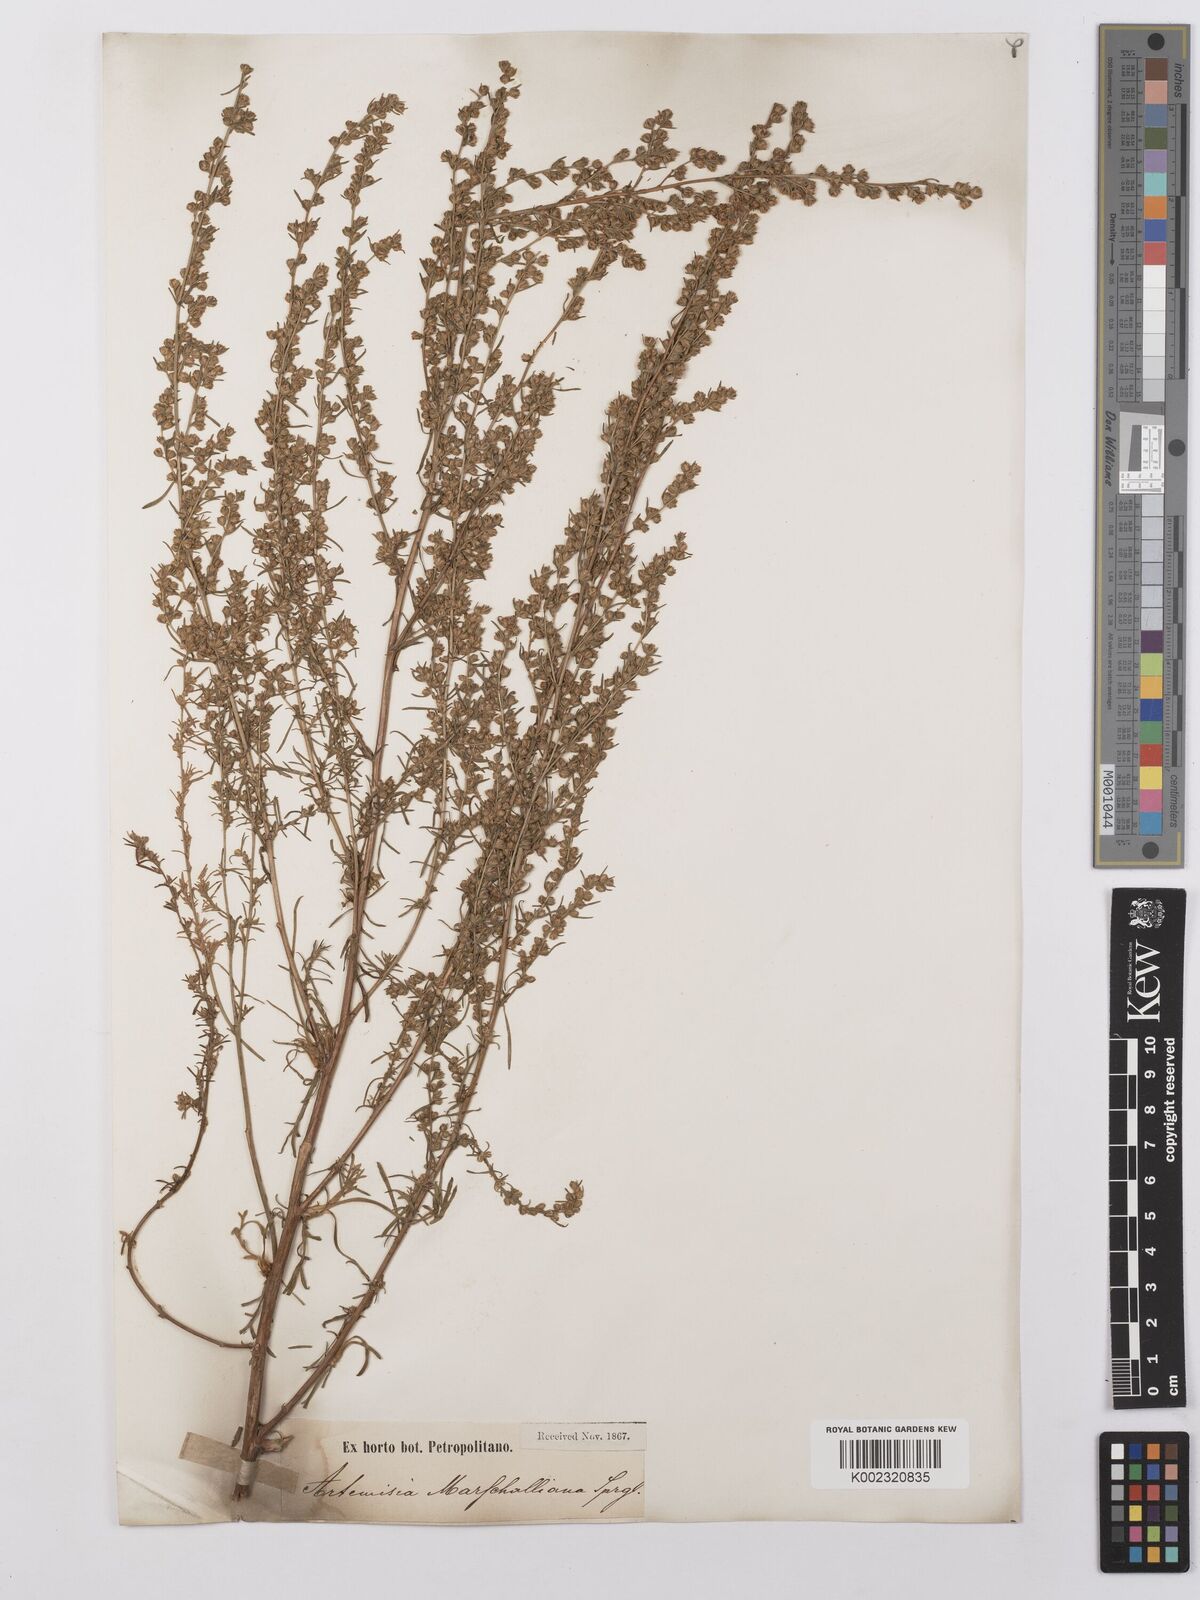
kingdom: Plantae
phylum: Tracheophyta
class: Magnoliopsida
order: Asterales
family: Asteraceae
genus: Artemisia
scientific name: Artemisia dracunculus
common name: Tarragon
